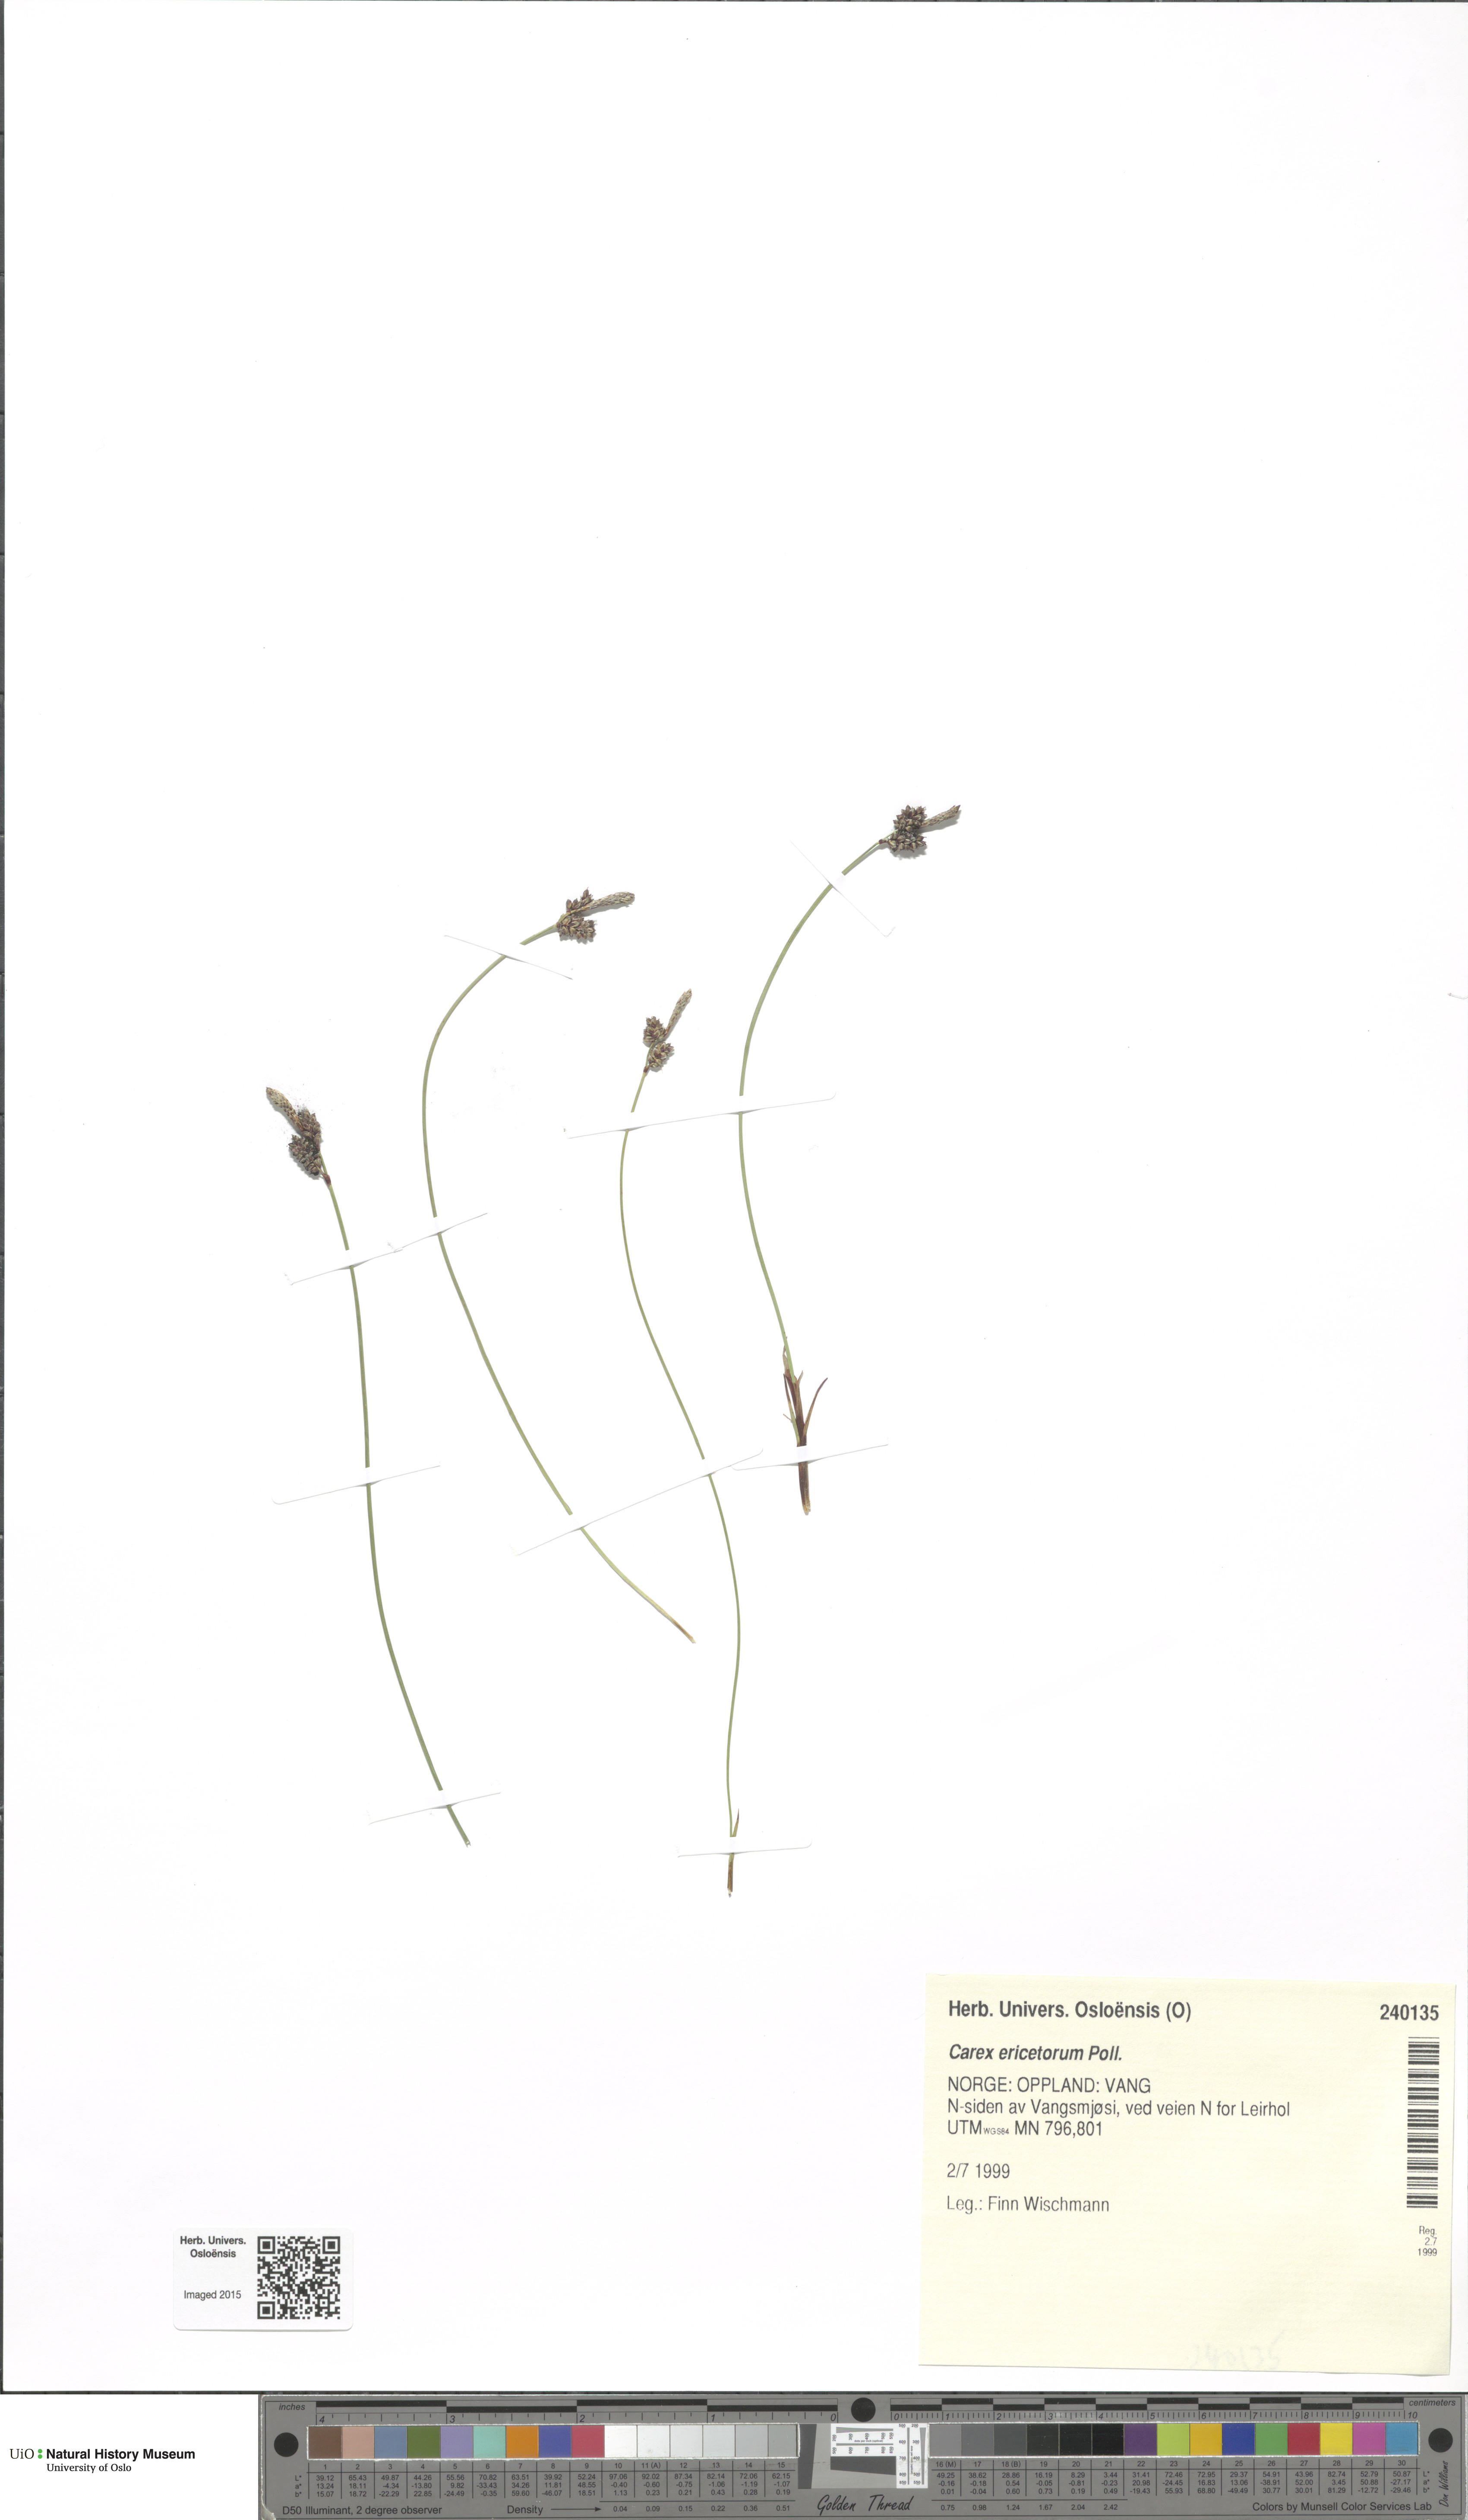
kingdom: Plantae
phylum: Tracheophyta
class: Liliopsida
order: Poales
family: Cyperaceae
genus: Carex
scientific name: Carex ericetorum
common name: Rare spring-sedge
